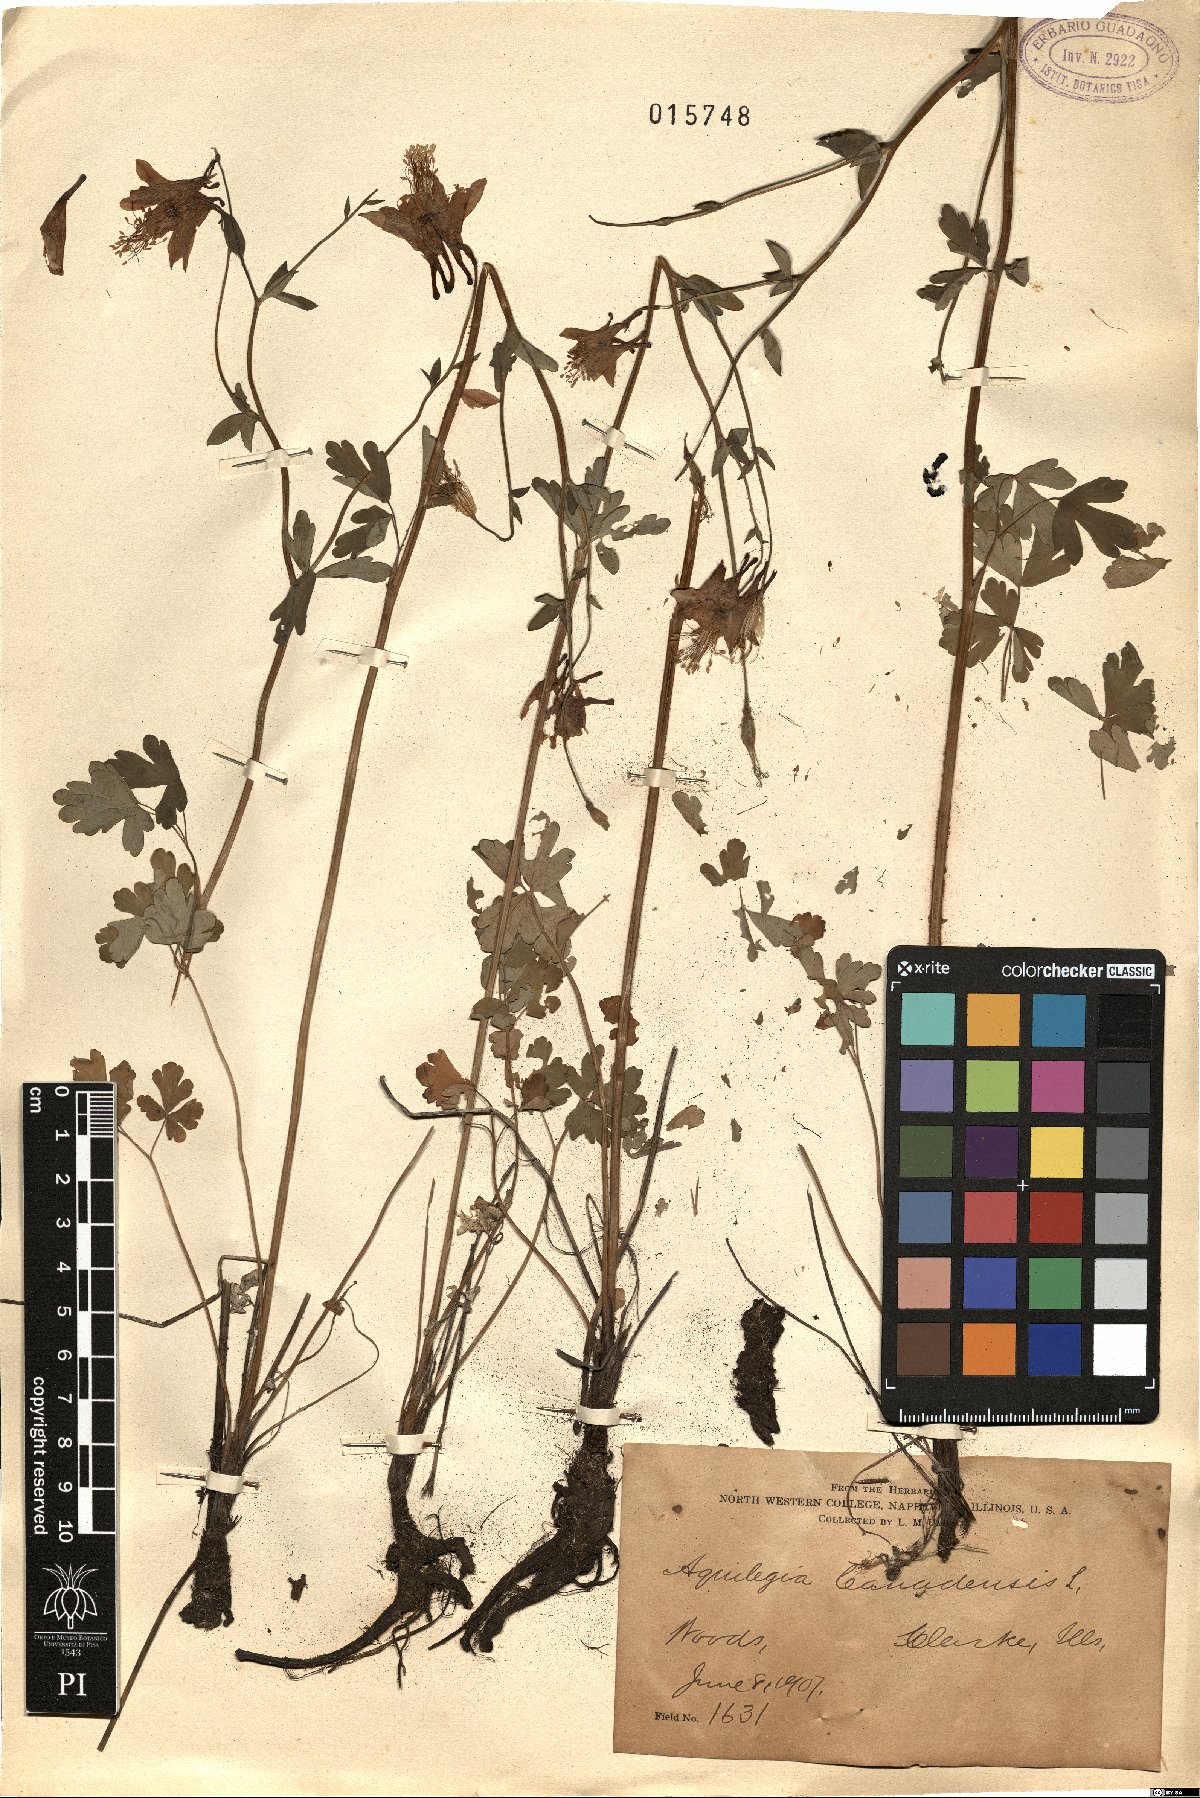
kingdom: Plantae
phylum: Tracheophyta
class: Magnoliopsida
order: Ranunculales
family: Ranunculaceae
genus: Aquilegia
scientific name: Aquilegia canadensis
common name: American columbine
